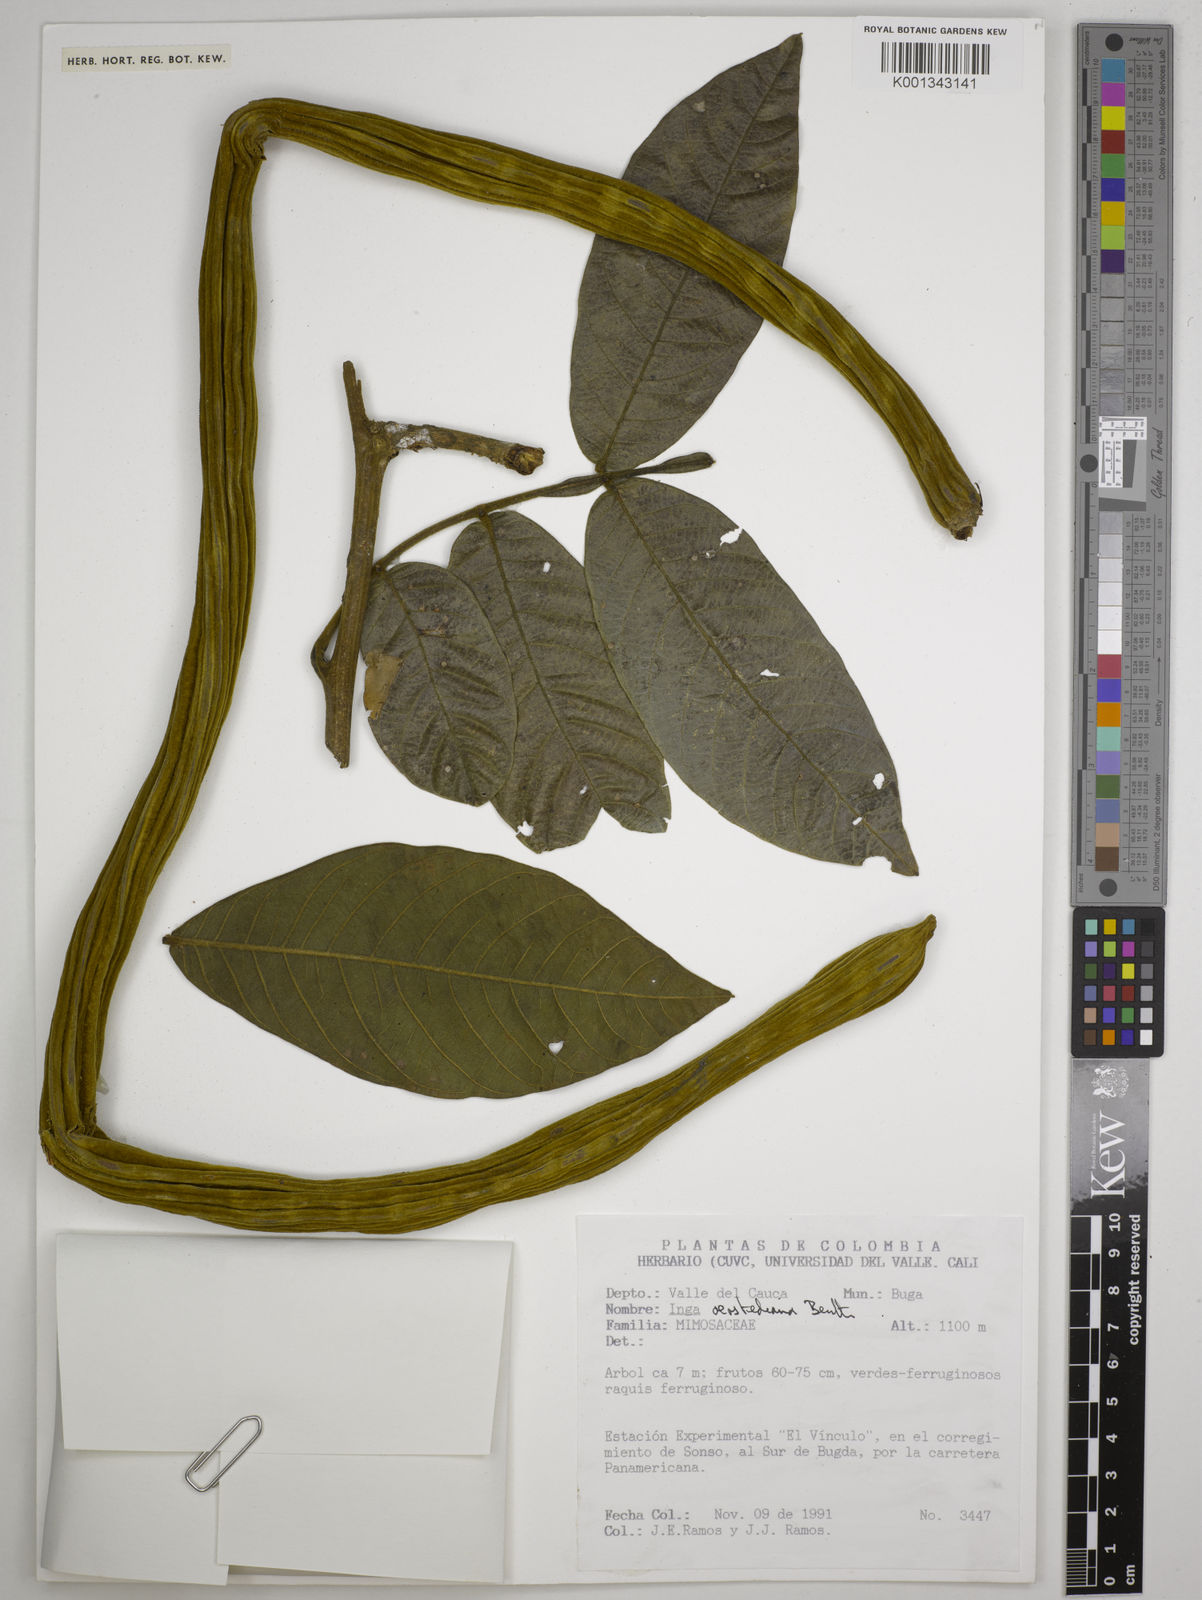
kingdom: Plantae
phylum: Tracheophyta
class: Magnoliopsida
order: Fabales
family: Fabaceae
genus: Inga
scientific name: Inga oerstediana
